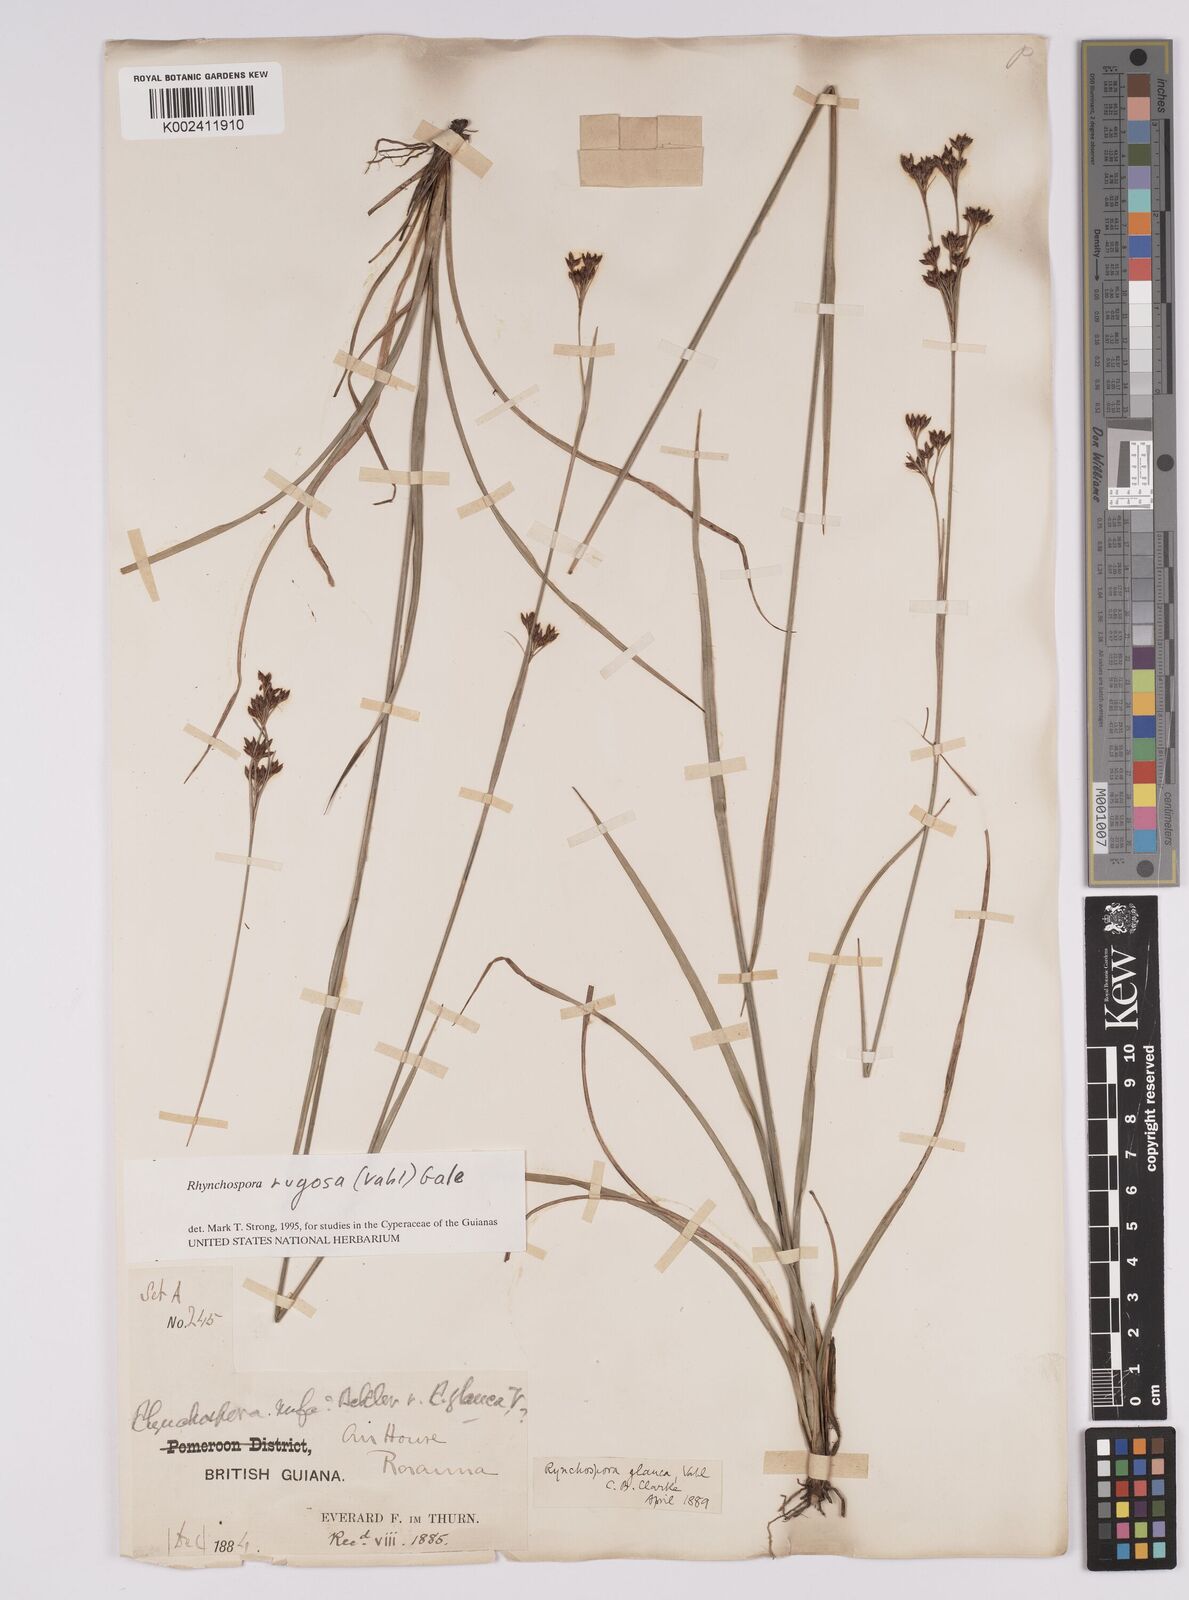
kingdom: Plantae
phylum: Tracheophyta
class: Liliopsida
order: Poales
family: Cyperaceae
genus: Rhynchospora
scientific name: Rhynchospora rugosa
